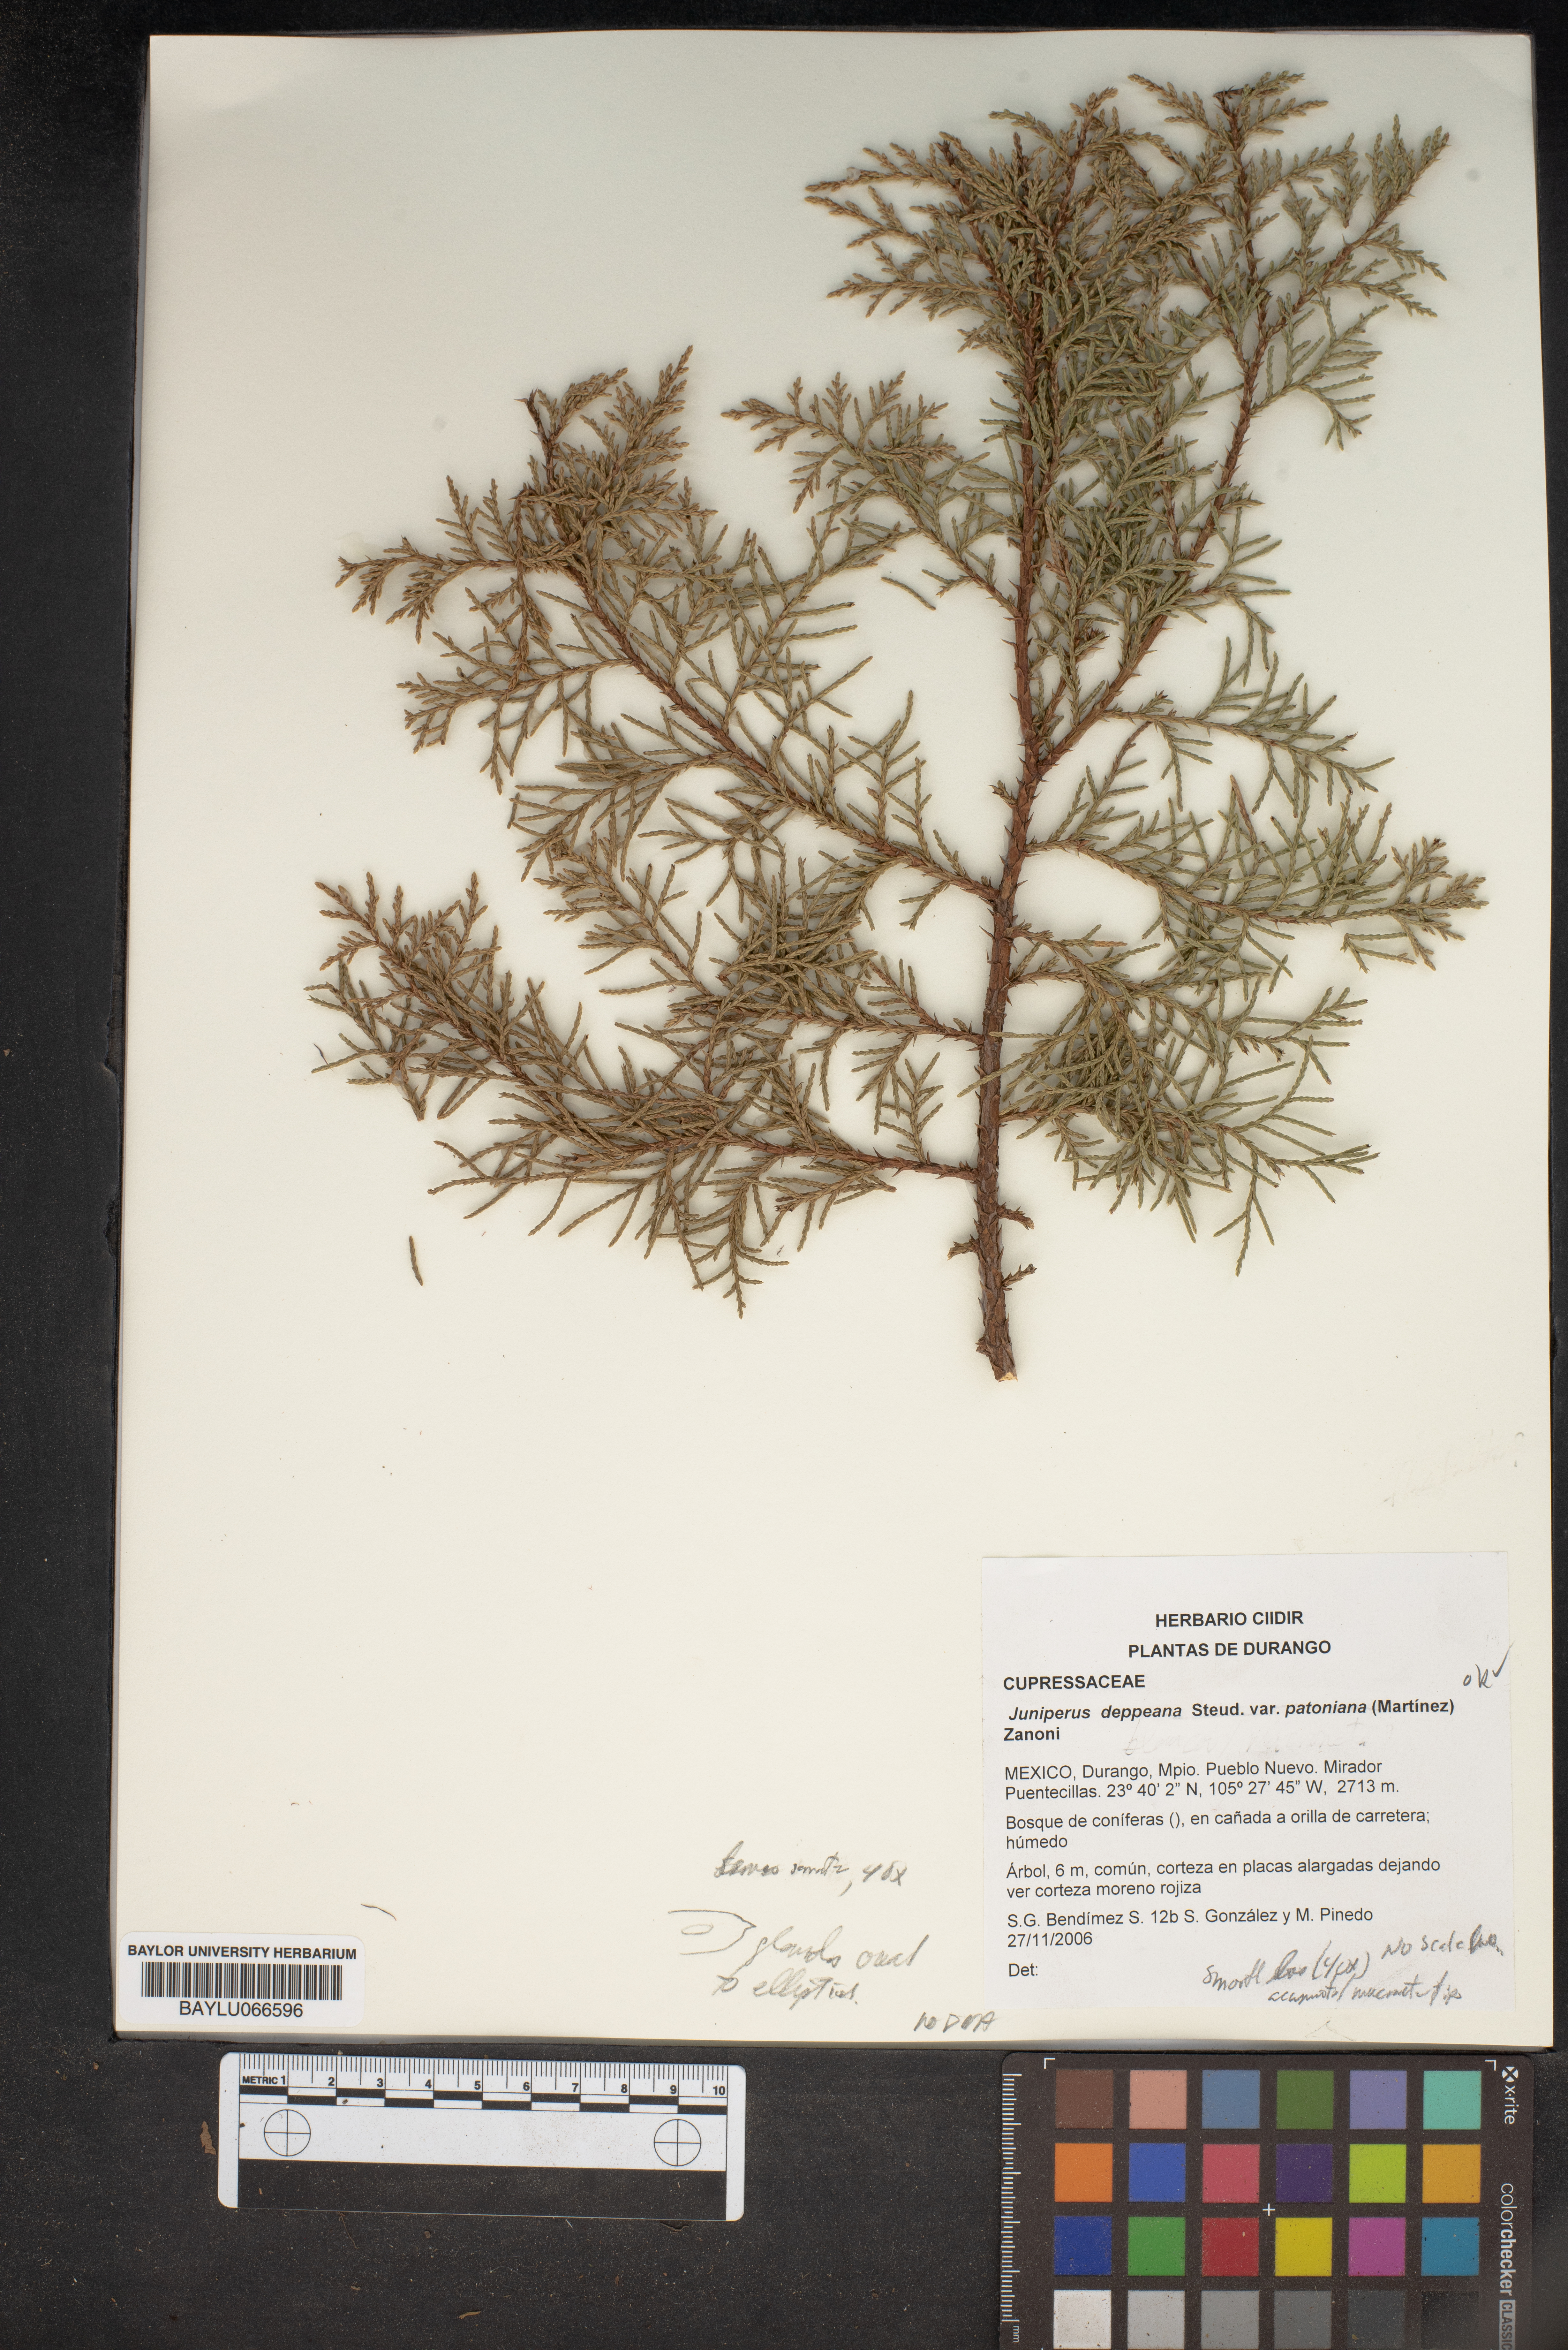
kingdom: Plantae
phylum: Tracheophyta
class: Pinopsida
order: Pinales
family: Cupressaceae
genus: Juniperus
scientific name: Juniperus deppeana
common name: Alligator juniper
